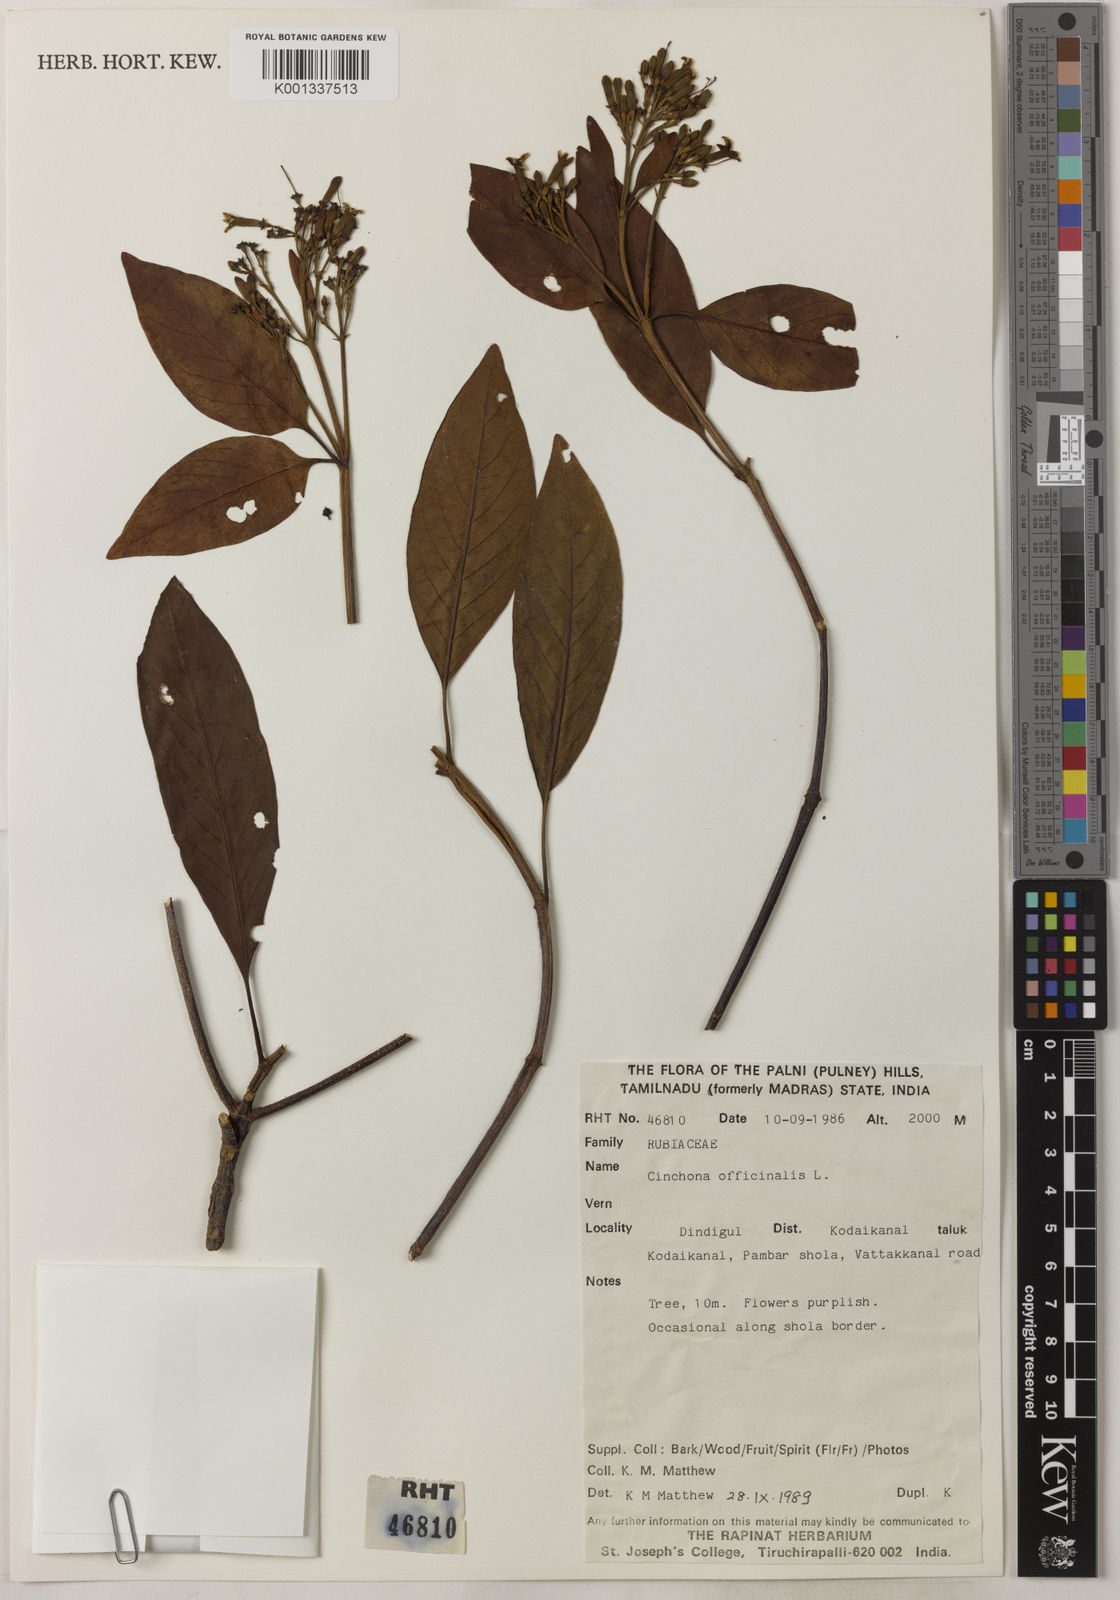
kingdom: Plantae
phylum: Tracheophyta
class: Magnoliopsida
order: Gentianales
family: Rubiaceae
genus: Cinchona
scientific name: Cinchona officinalis
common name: Lojabark
